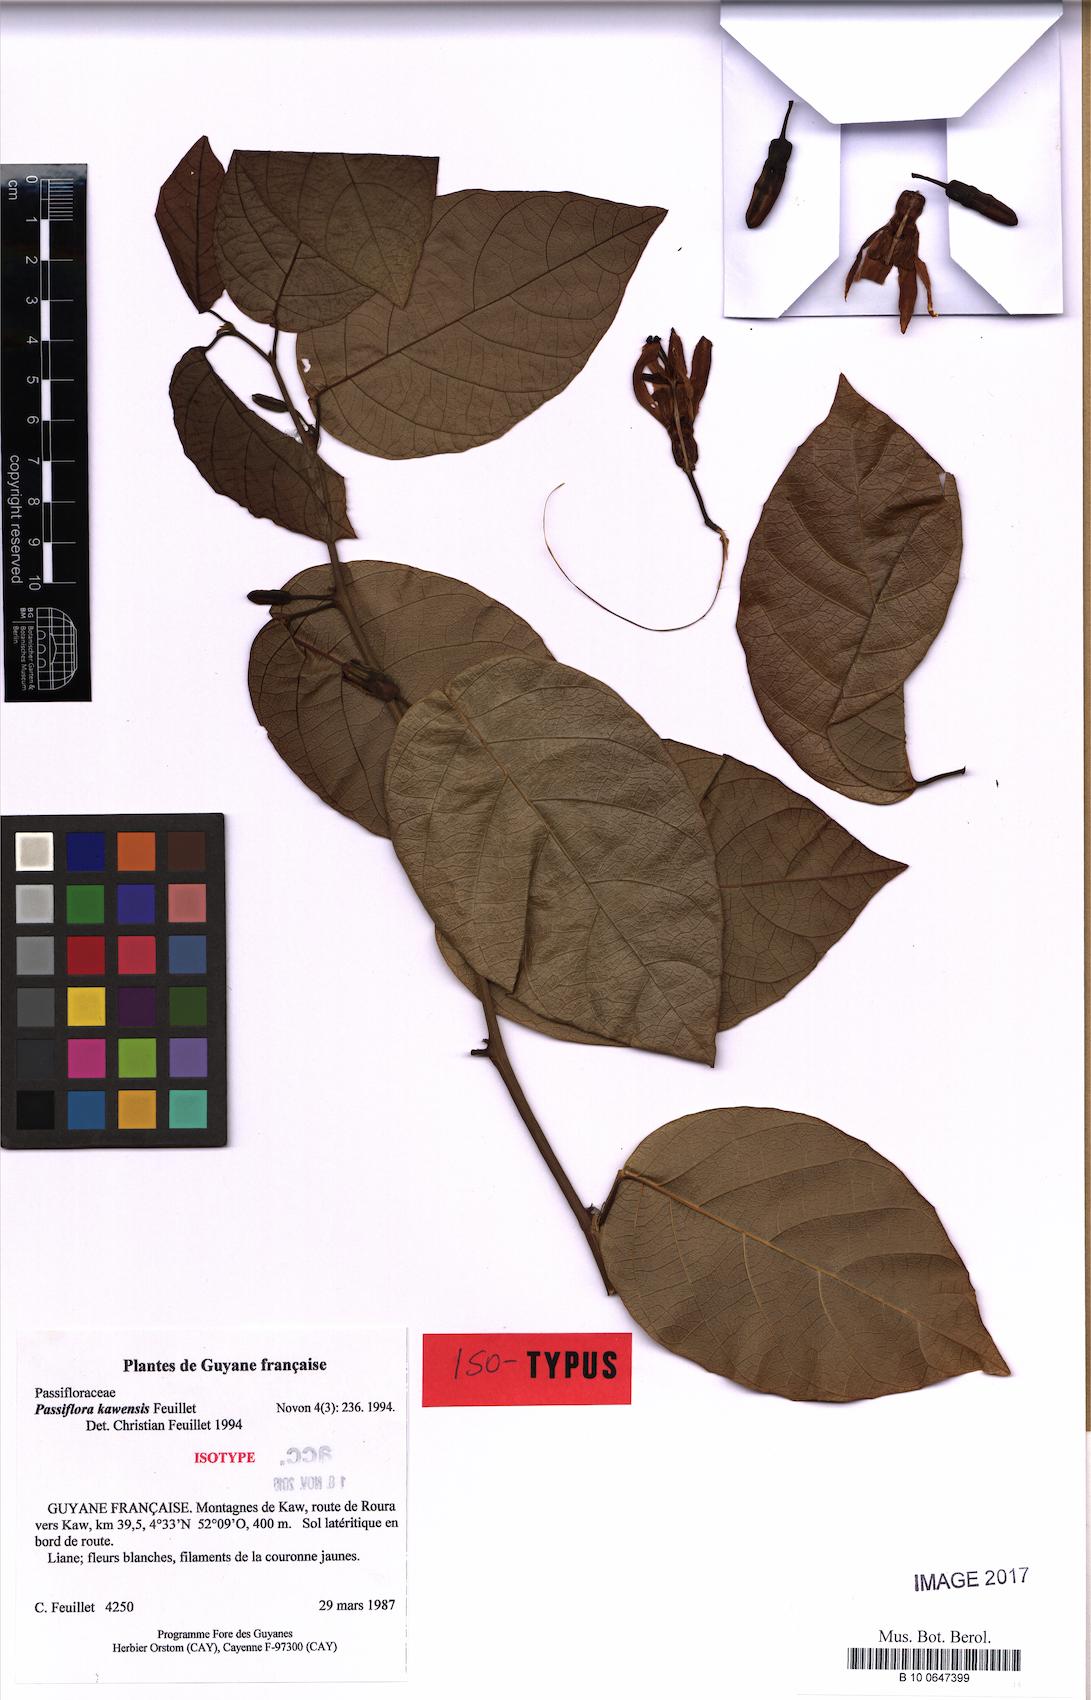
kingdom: Plantae
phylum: Tracheophyta
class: Magnoliopsida
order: Malpighiales
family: Passifloraceae
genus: Passiflora
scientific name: Passiflora kawensis
